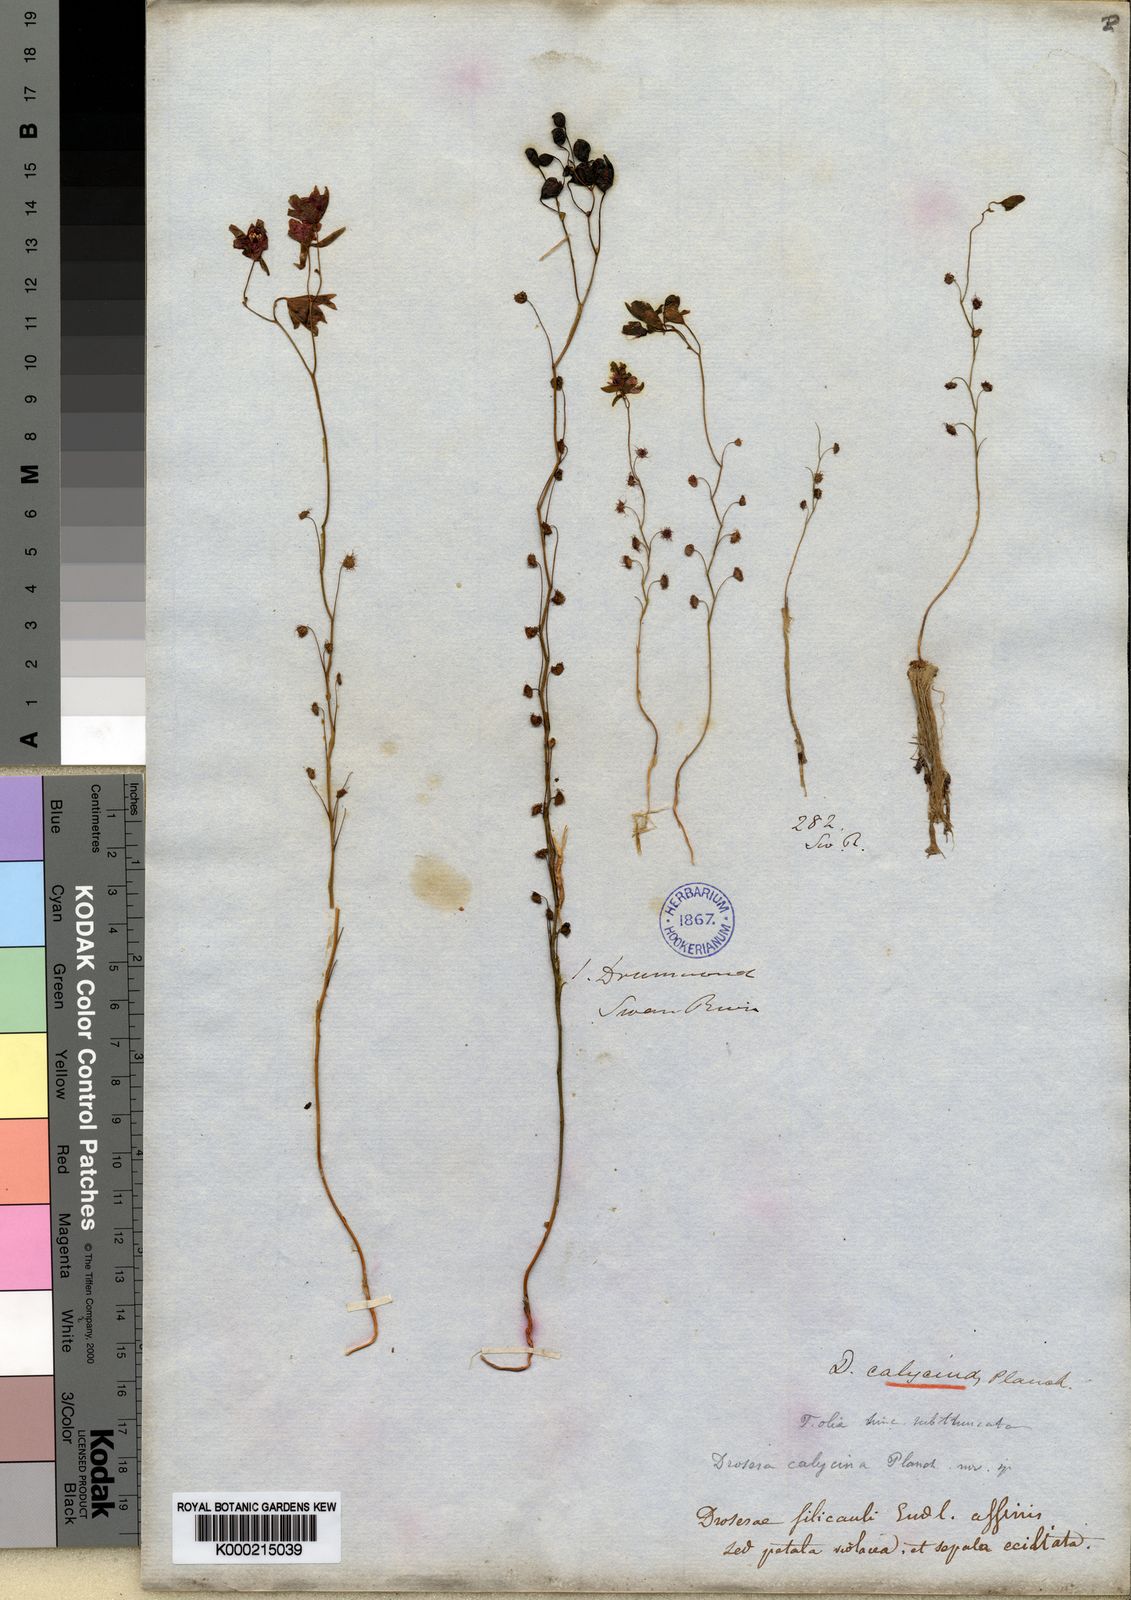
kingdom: Plantae
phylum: Tracheophyta
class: Magnoliopsida
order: Caryophyllales
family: Droseraceae
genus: Drosera
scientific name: Drosera microphylla
